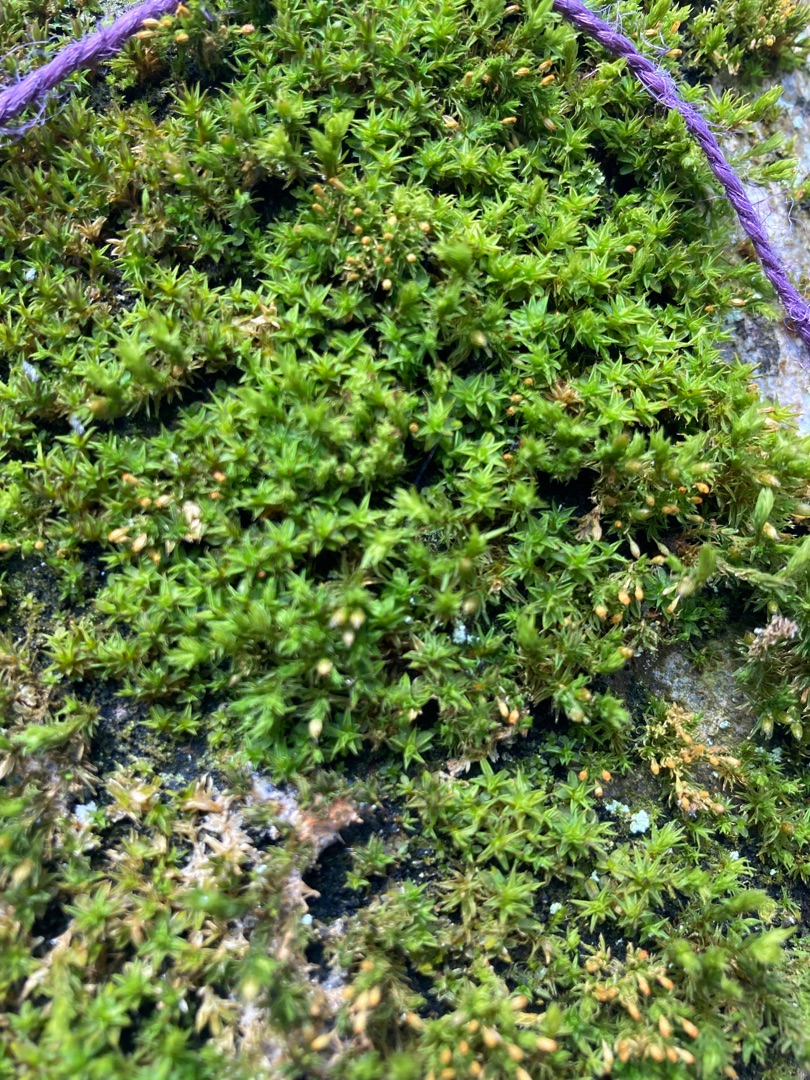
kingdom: Plantae
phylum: Bryophyta
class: Bryopsida
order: Orthotrichales
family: Orthotrichaceae
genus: Lewinskya
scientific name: Lewinskya affinis
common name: Almindelig furehætte
